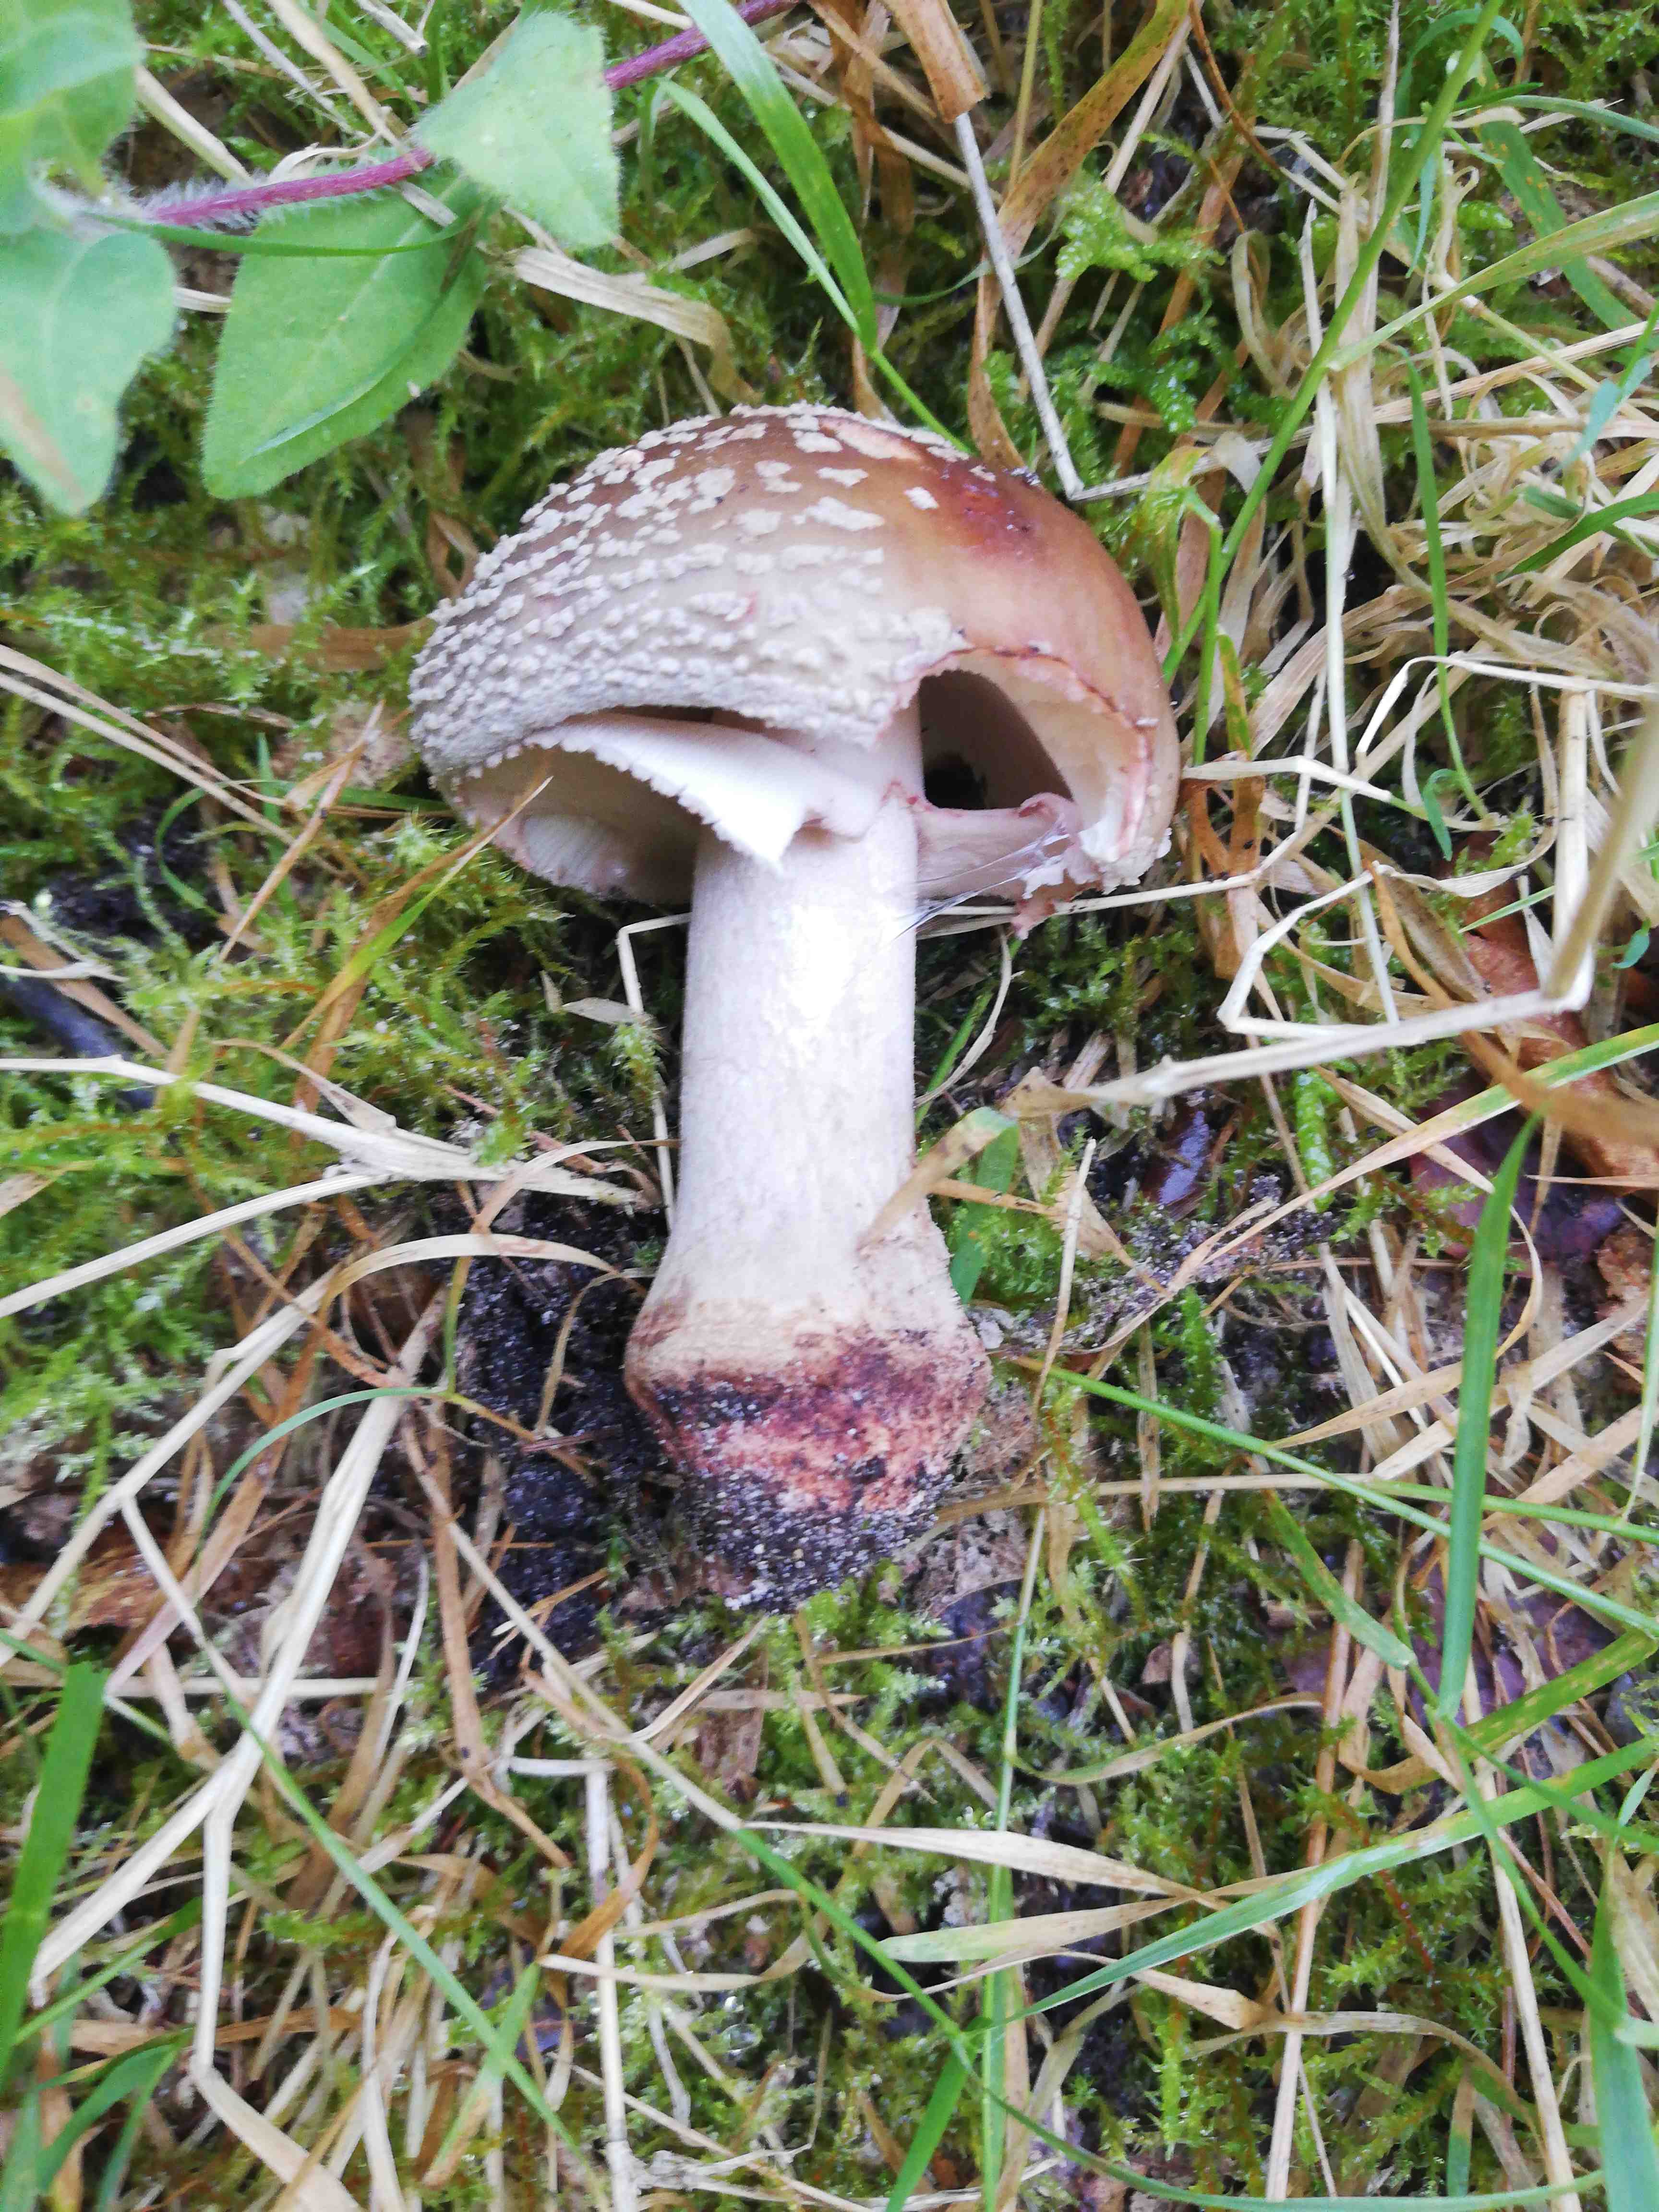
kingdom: Fungi
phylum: Basidiomycota
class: Agaricomycetes
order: Agaricales
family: Amanitaceae
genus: Amanita
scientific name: Amanita rubescens
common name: rødmende fluesvamp
